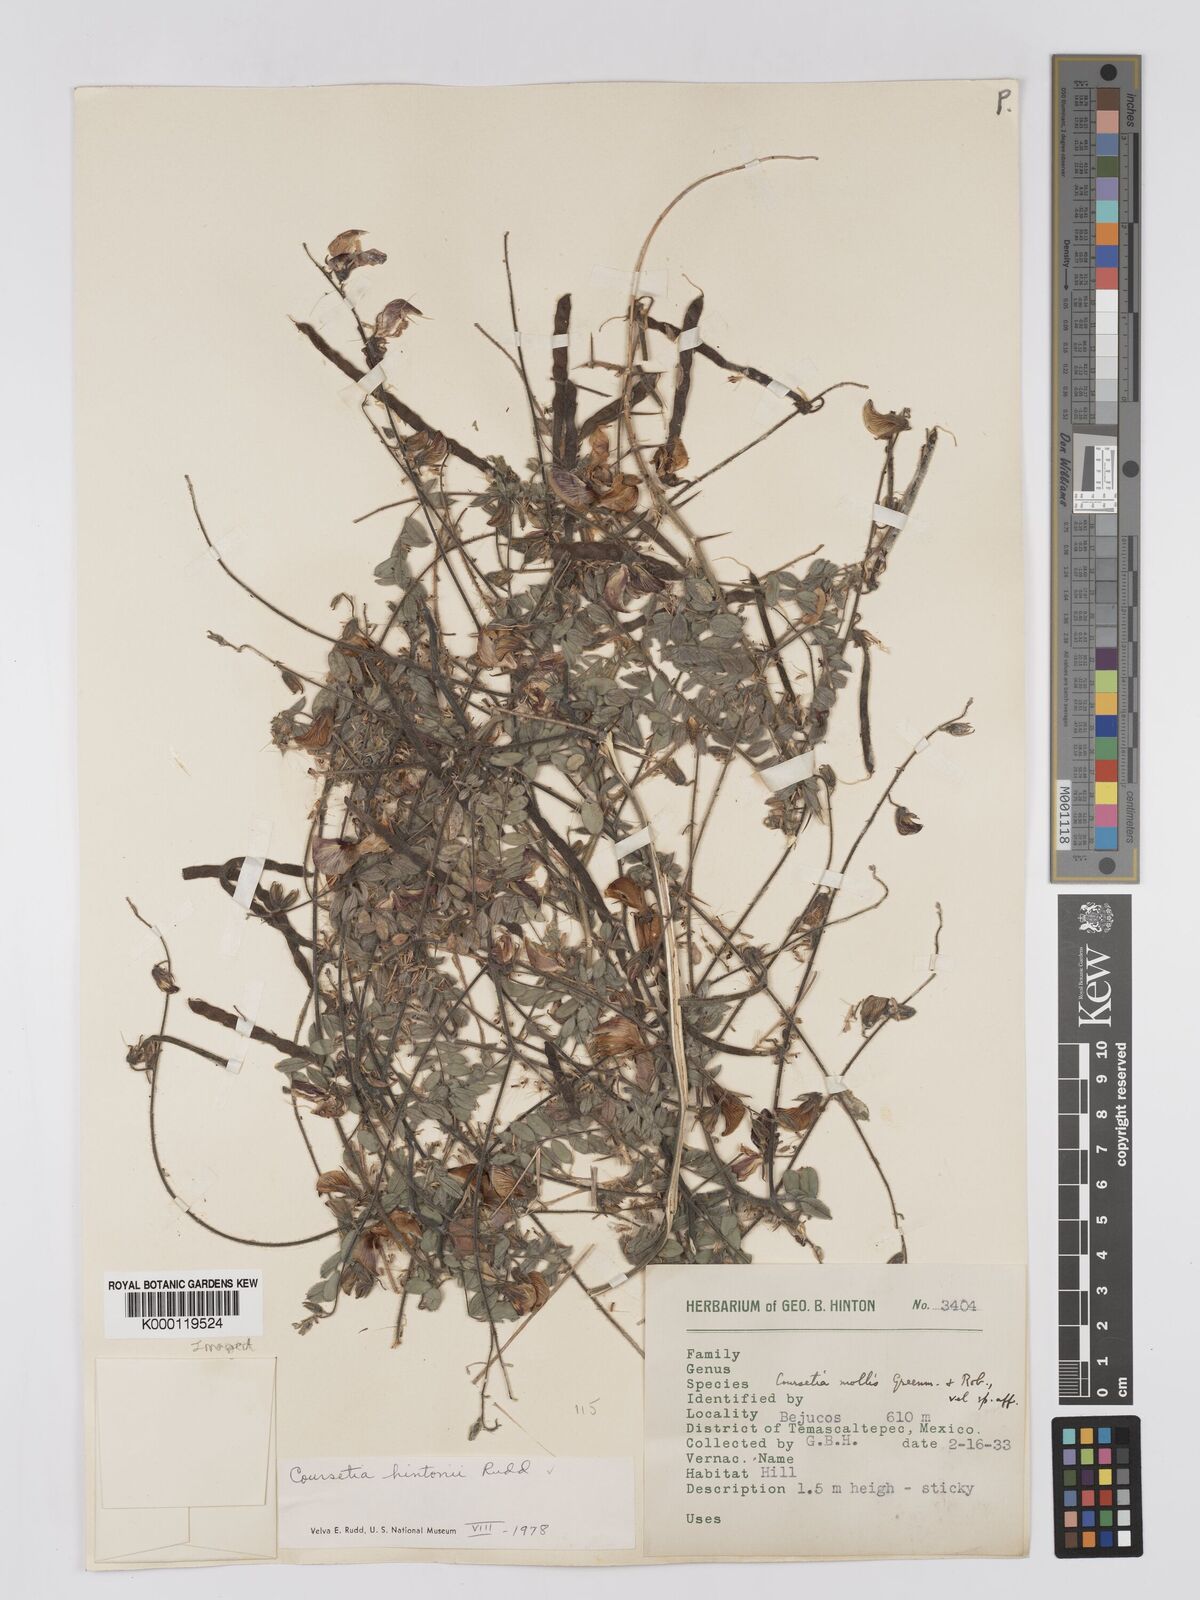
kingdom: Plantae
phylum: Tracheophyta
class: Magnoliopsida
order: Fabales
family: Fabaceae
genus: Coursetia
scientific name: Coursetia hintonii
